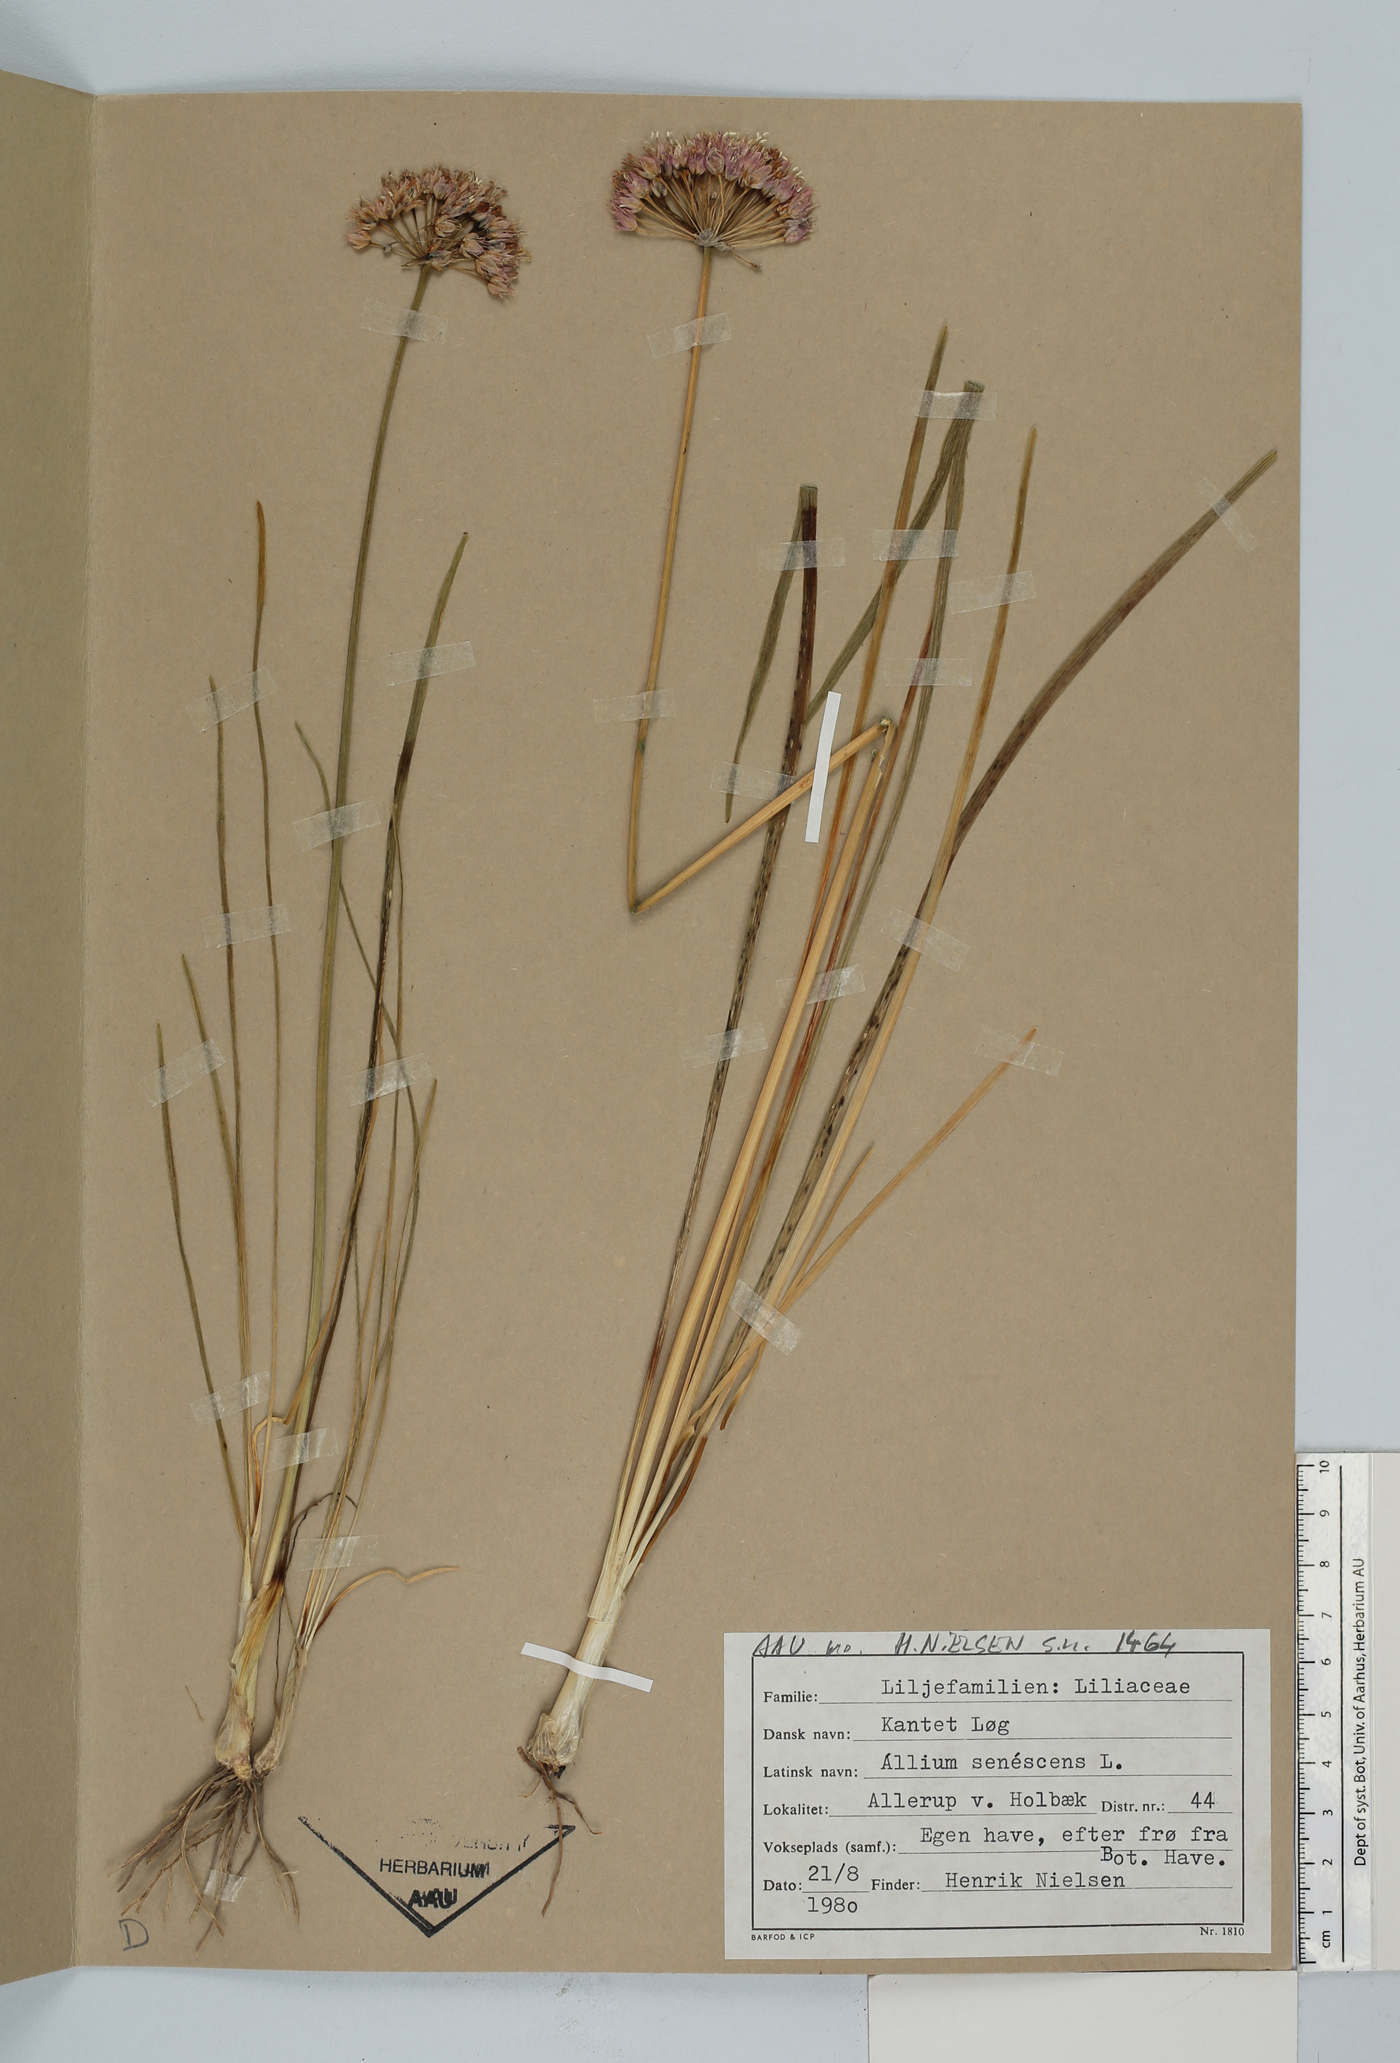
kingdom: Plantae
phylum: Tracheophyta
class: Liliopsida
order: Asparagales
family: Amaryllidaceae
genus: Allium
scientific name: Allium senescens
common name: German garlic
